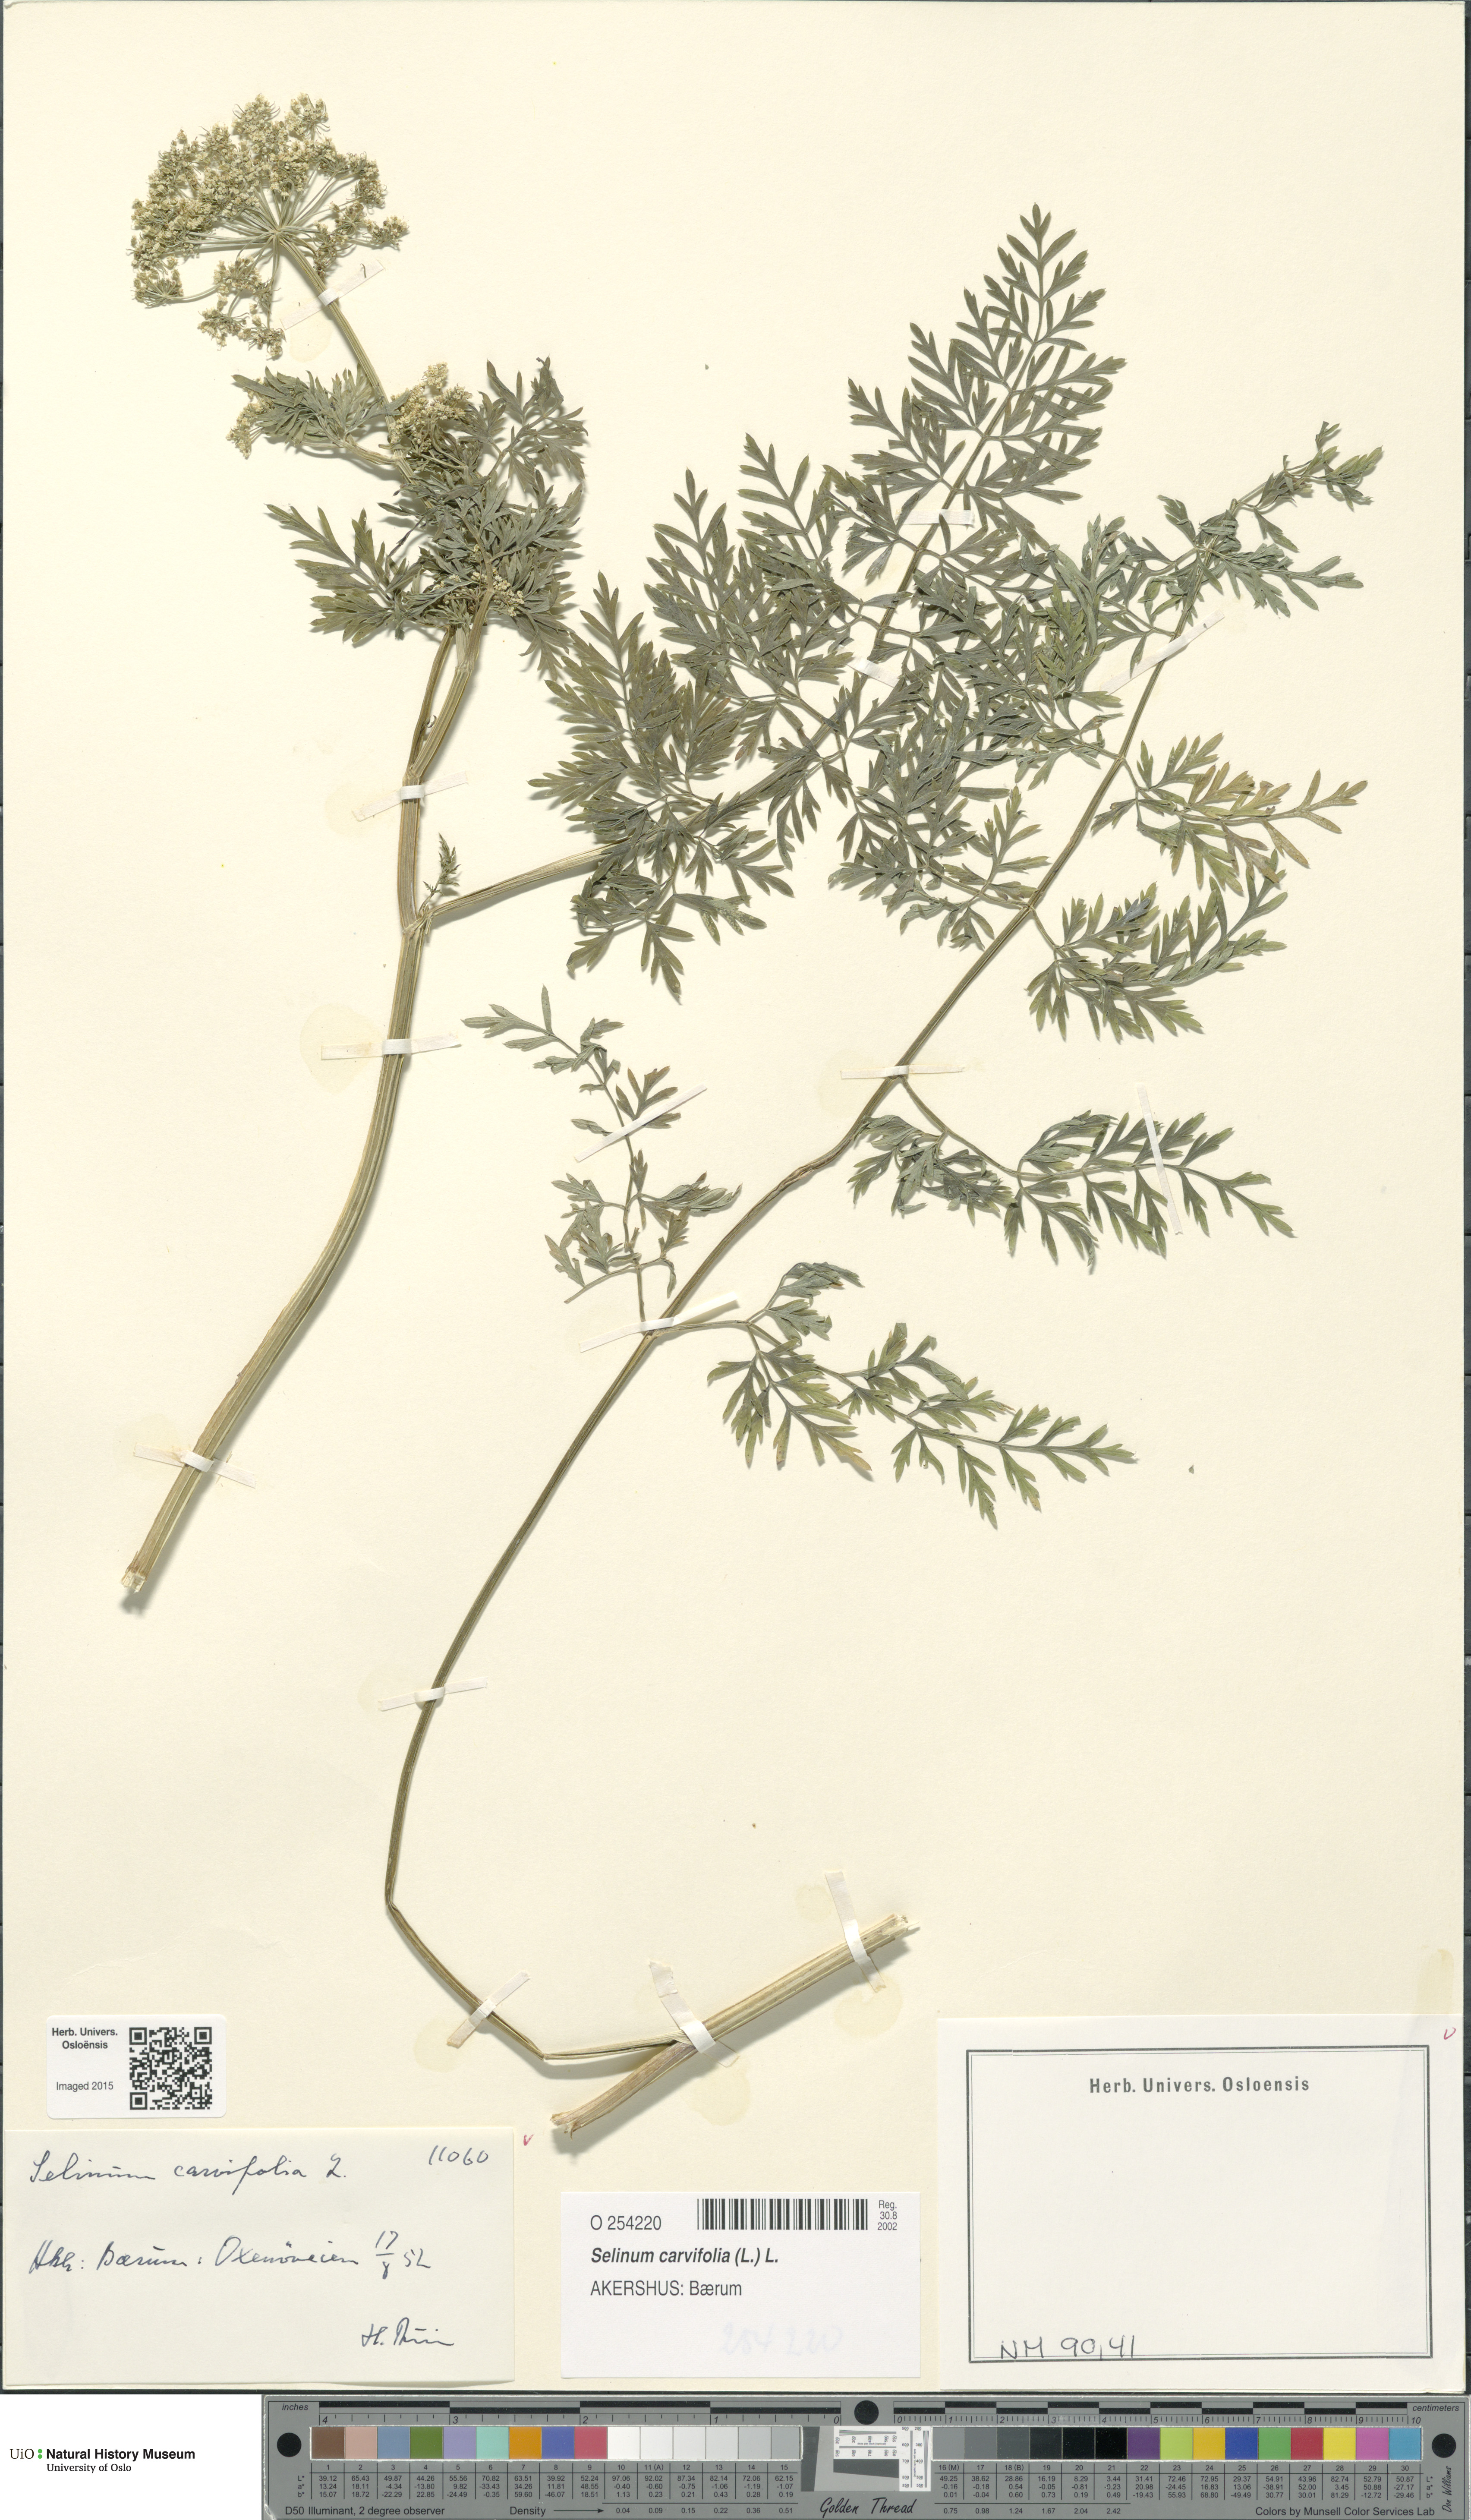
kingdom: Plantae
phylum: Tracheophyta
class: Magnoliopsida
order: Apiales
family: Apiaceae
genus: Selinum
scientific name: Selinum carvifolia
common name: Cambridge milk-parsley
